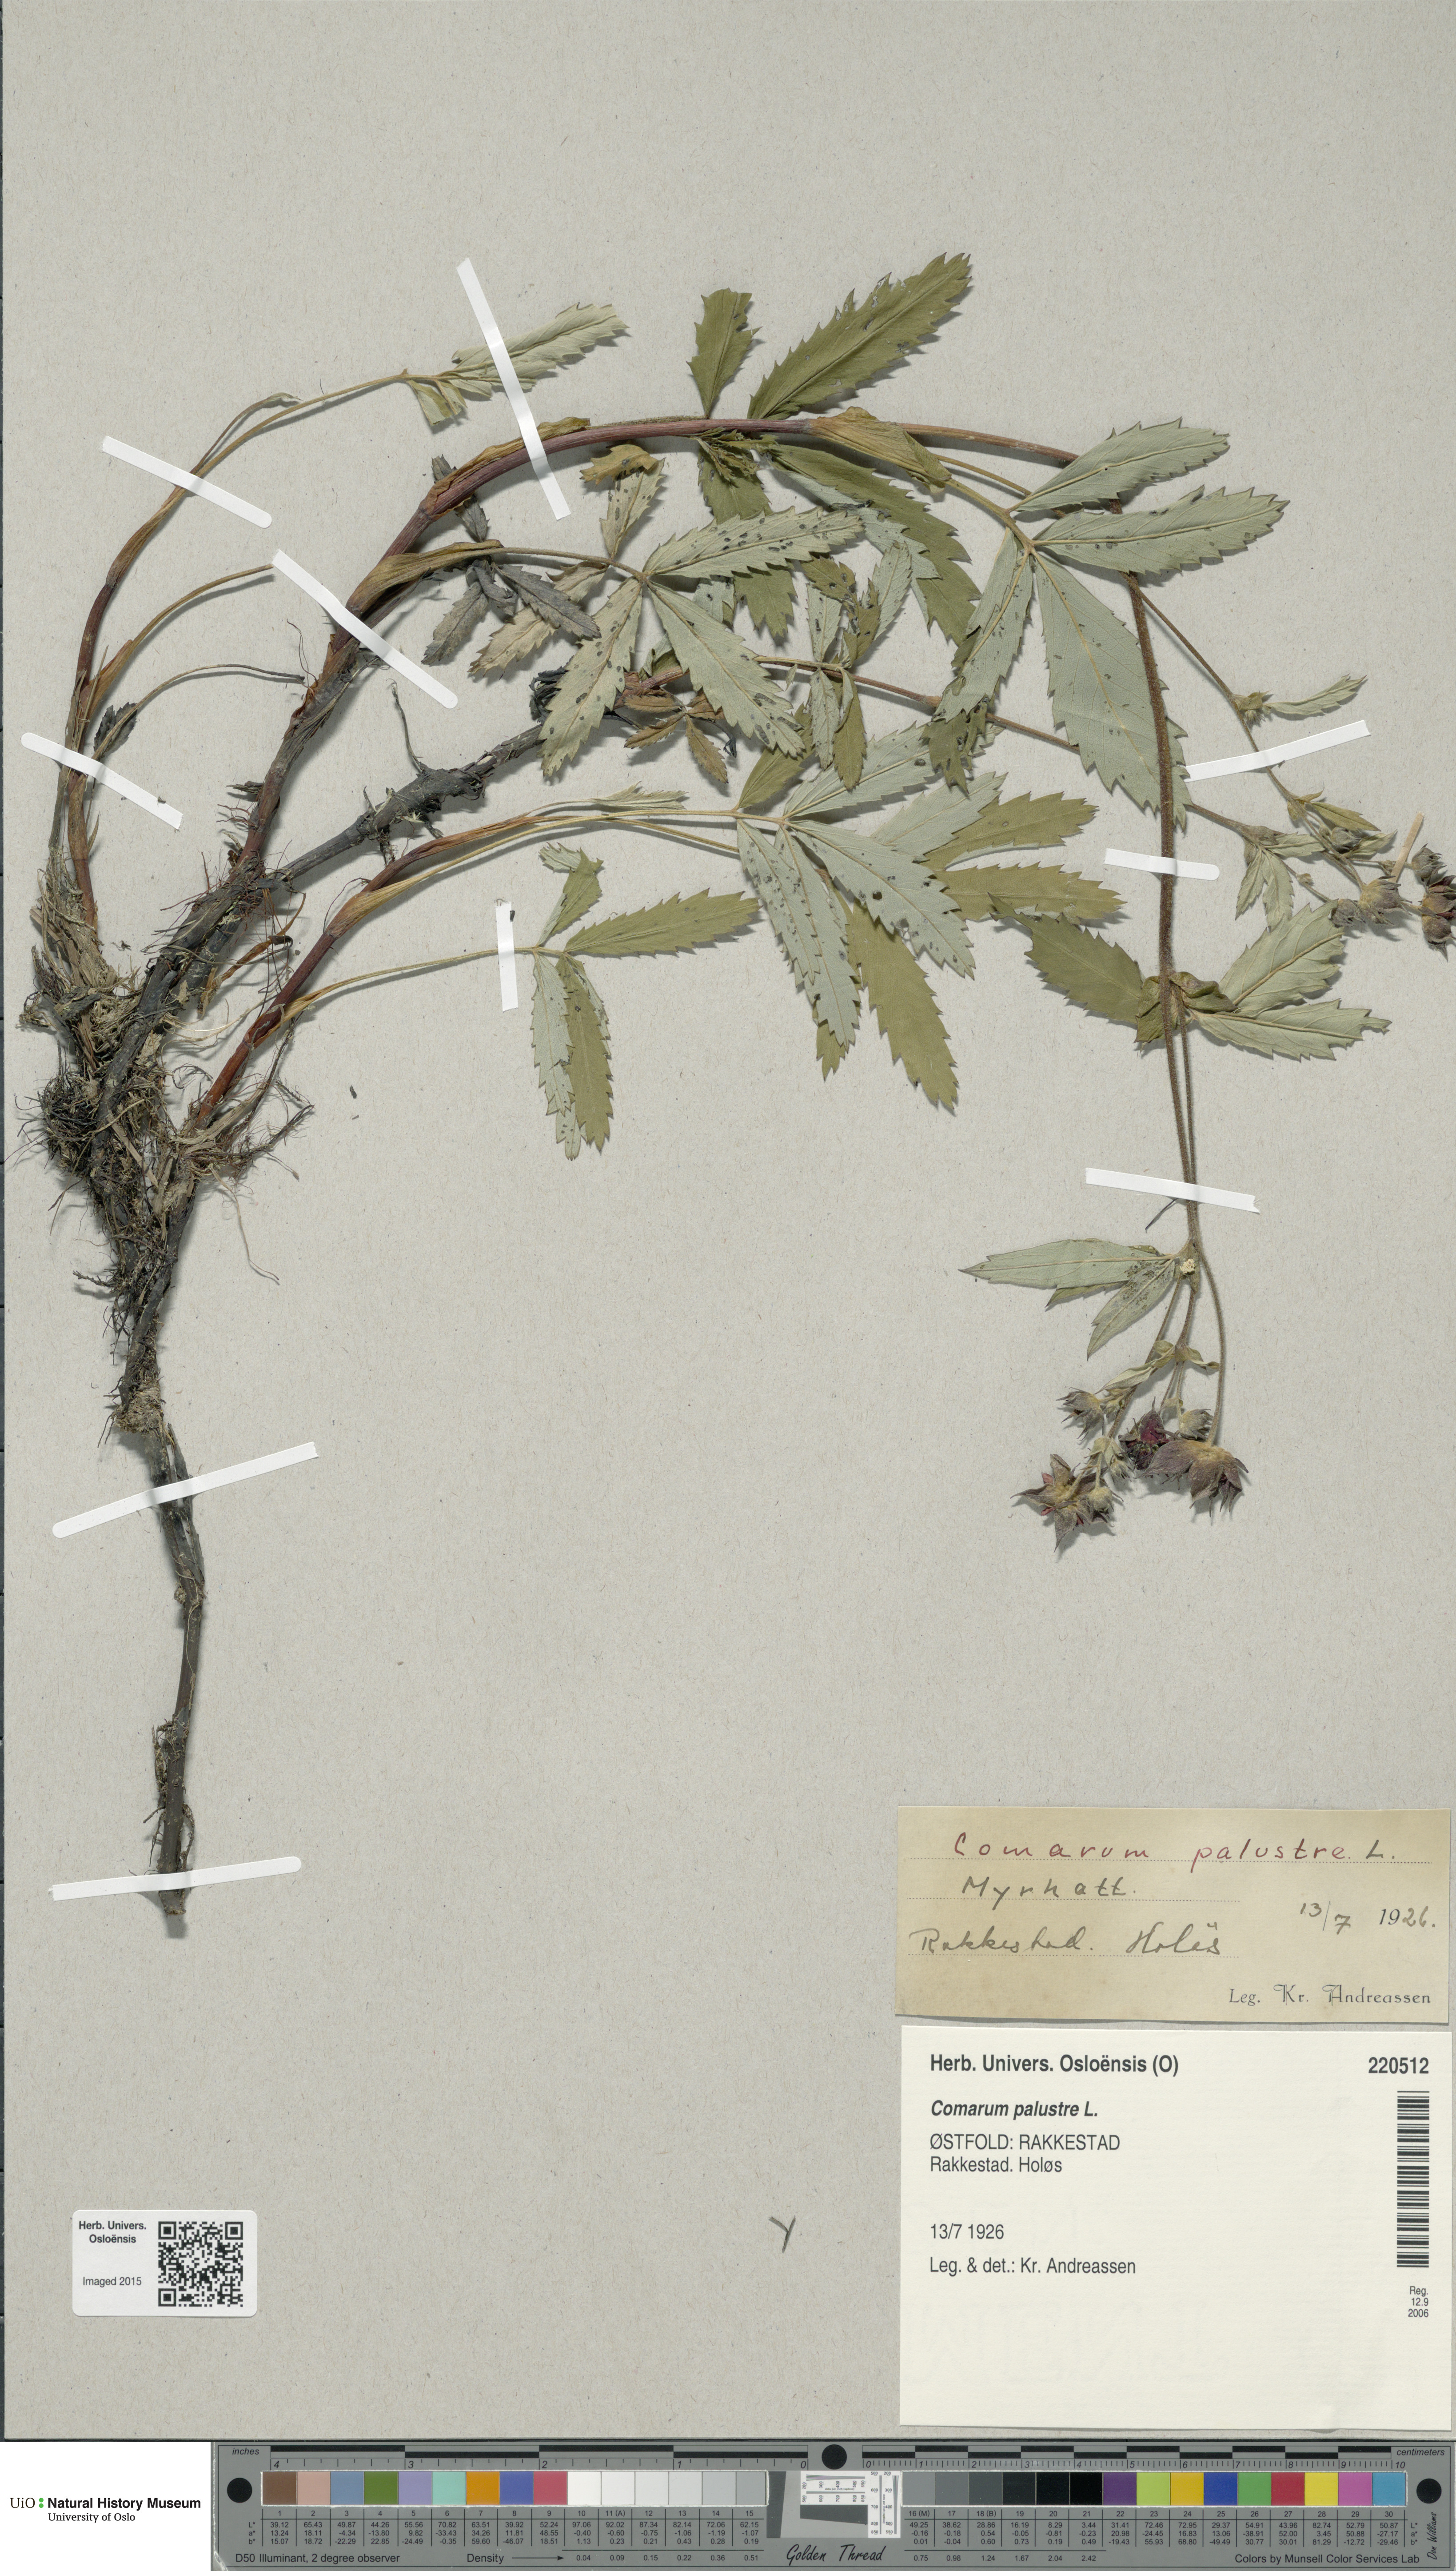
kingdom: Plantae
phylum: Tracheophyta
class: Magnoliopsida
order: Rosales
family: Rosaceae
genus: Comarum
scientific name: Comarum palustre
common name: Marsh cinquefoil
